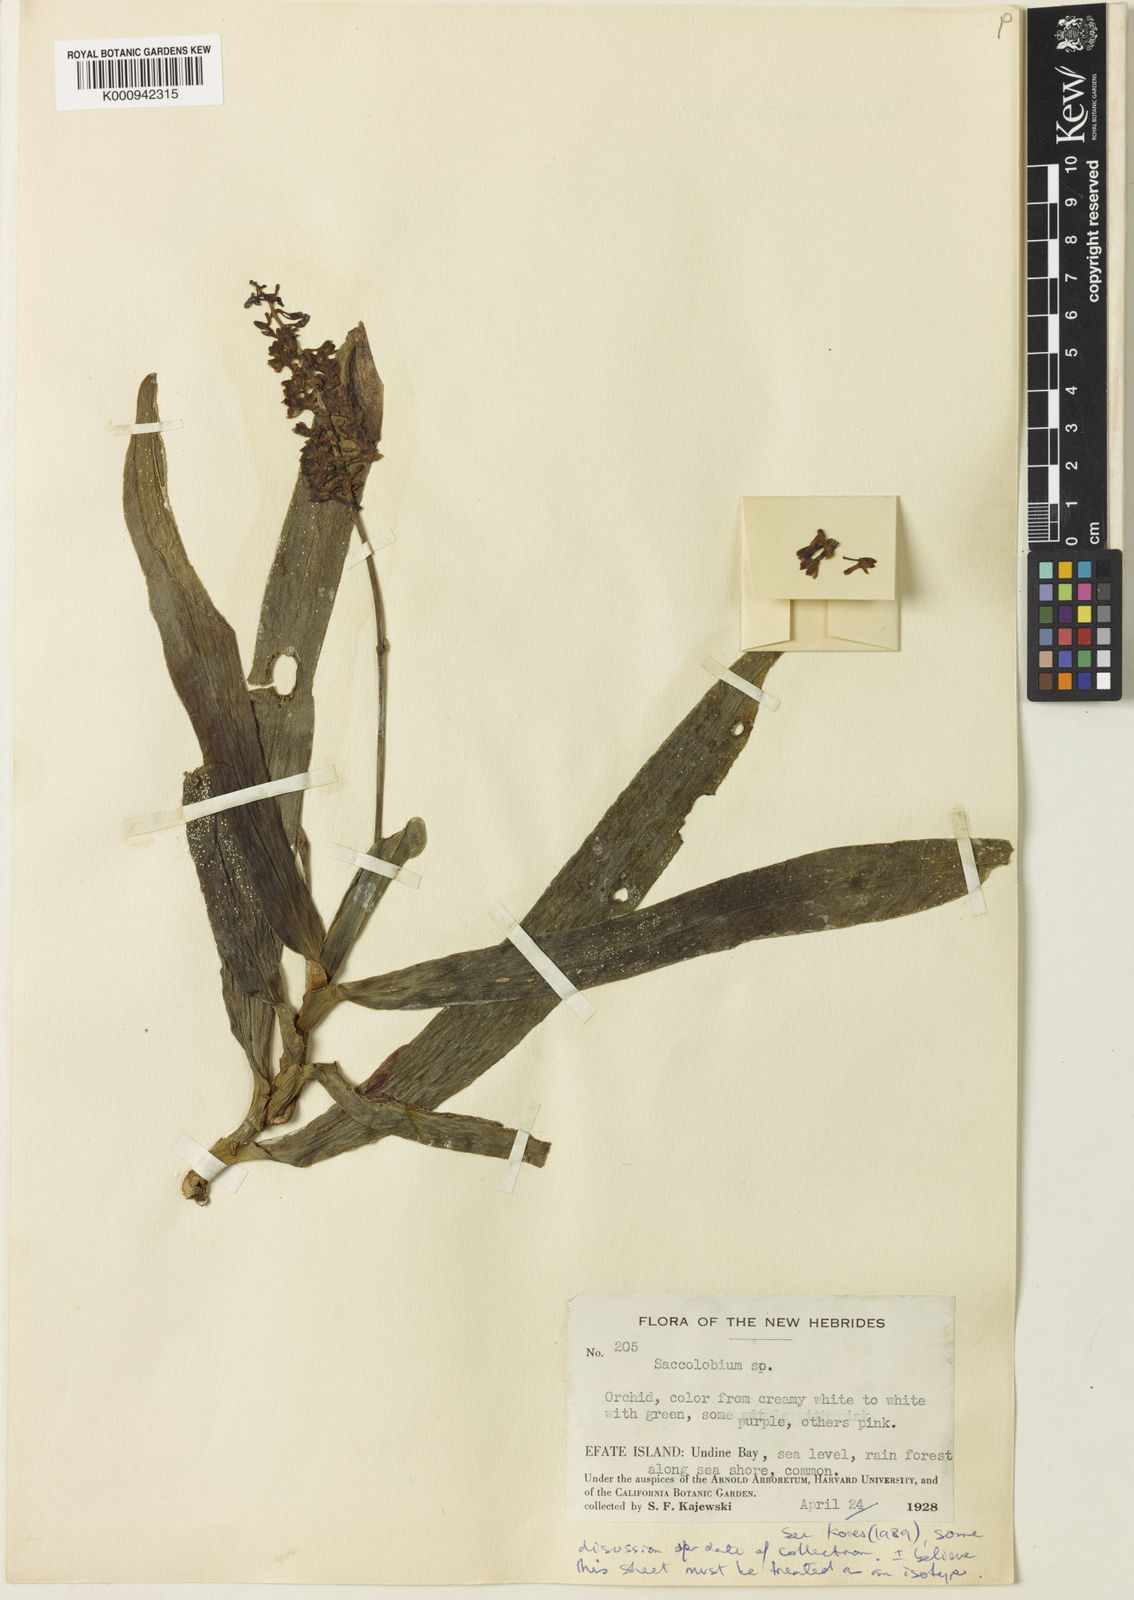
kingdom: Plantae
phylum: Tracheophyta
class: Liliopsida
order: Asparagales
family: Orchidaceae
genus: Robiquetia
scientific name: Robiquetia
